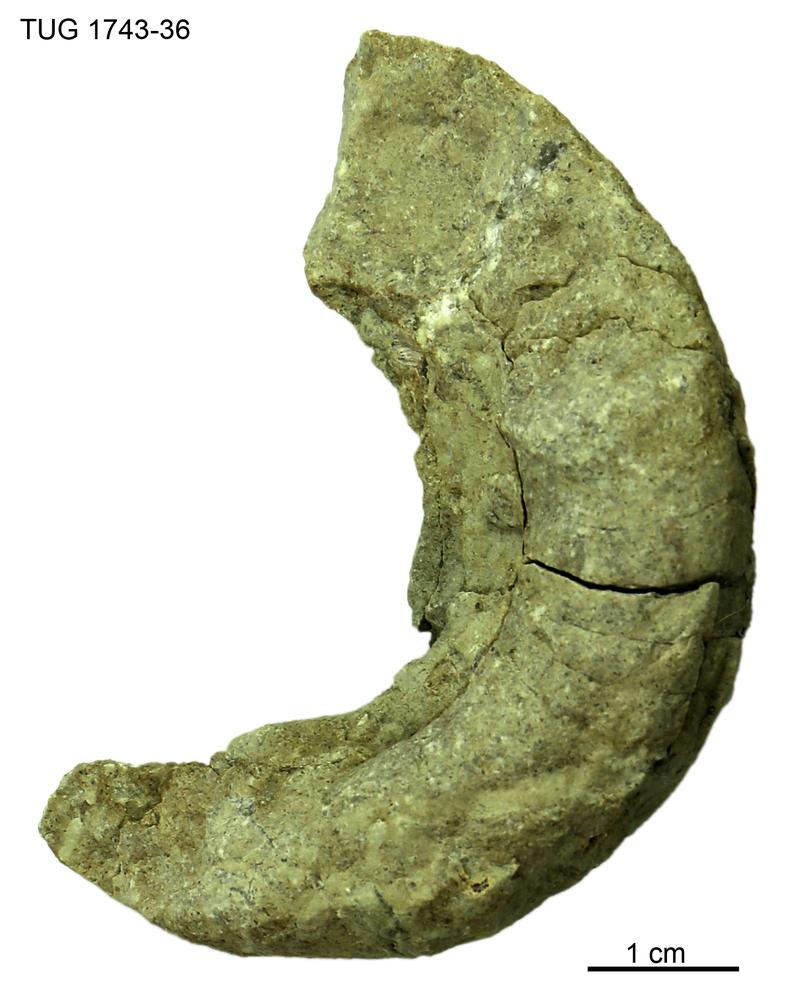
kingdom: Animalia
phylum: Mollusca
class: Cephalopoda
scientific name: Cephalopoda
